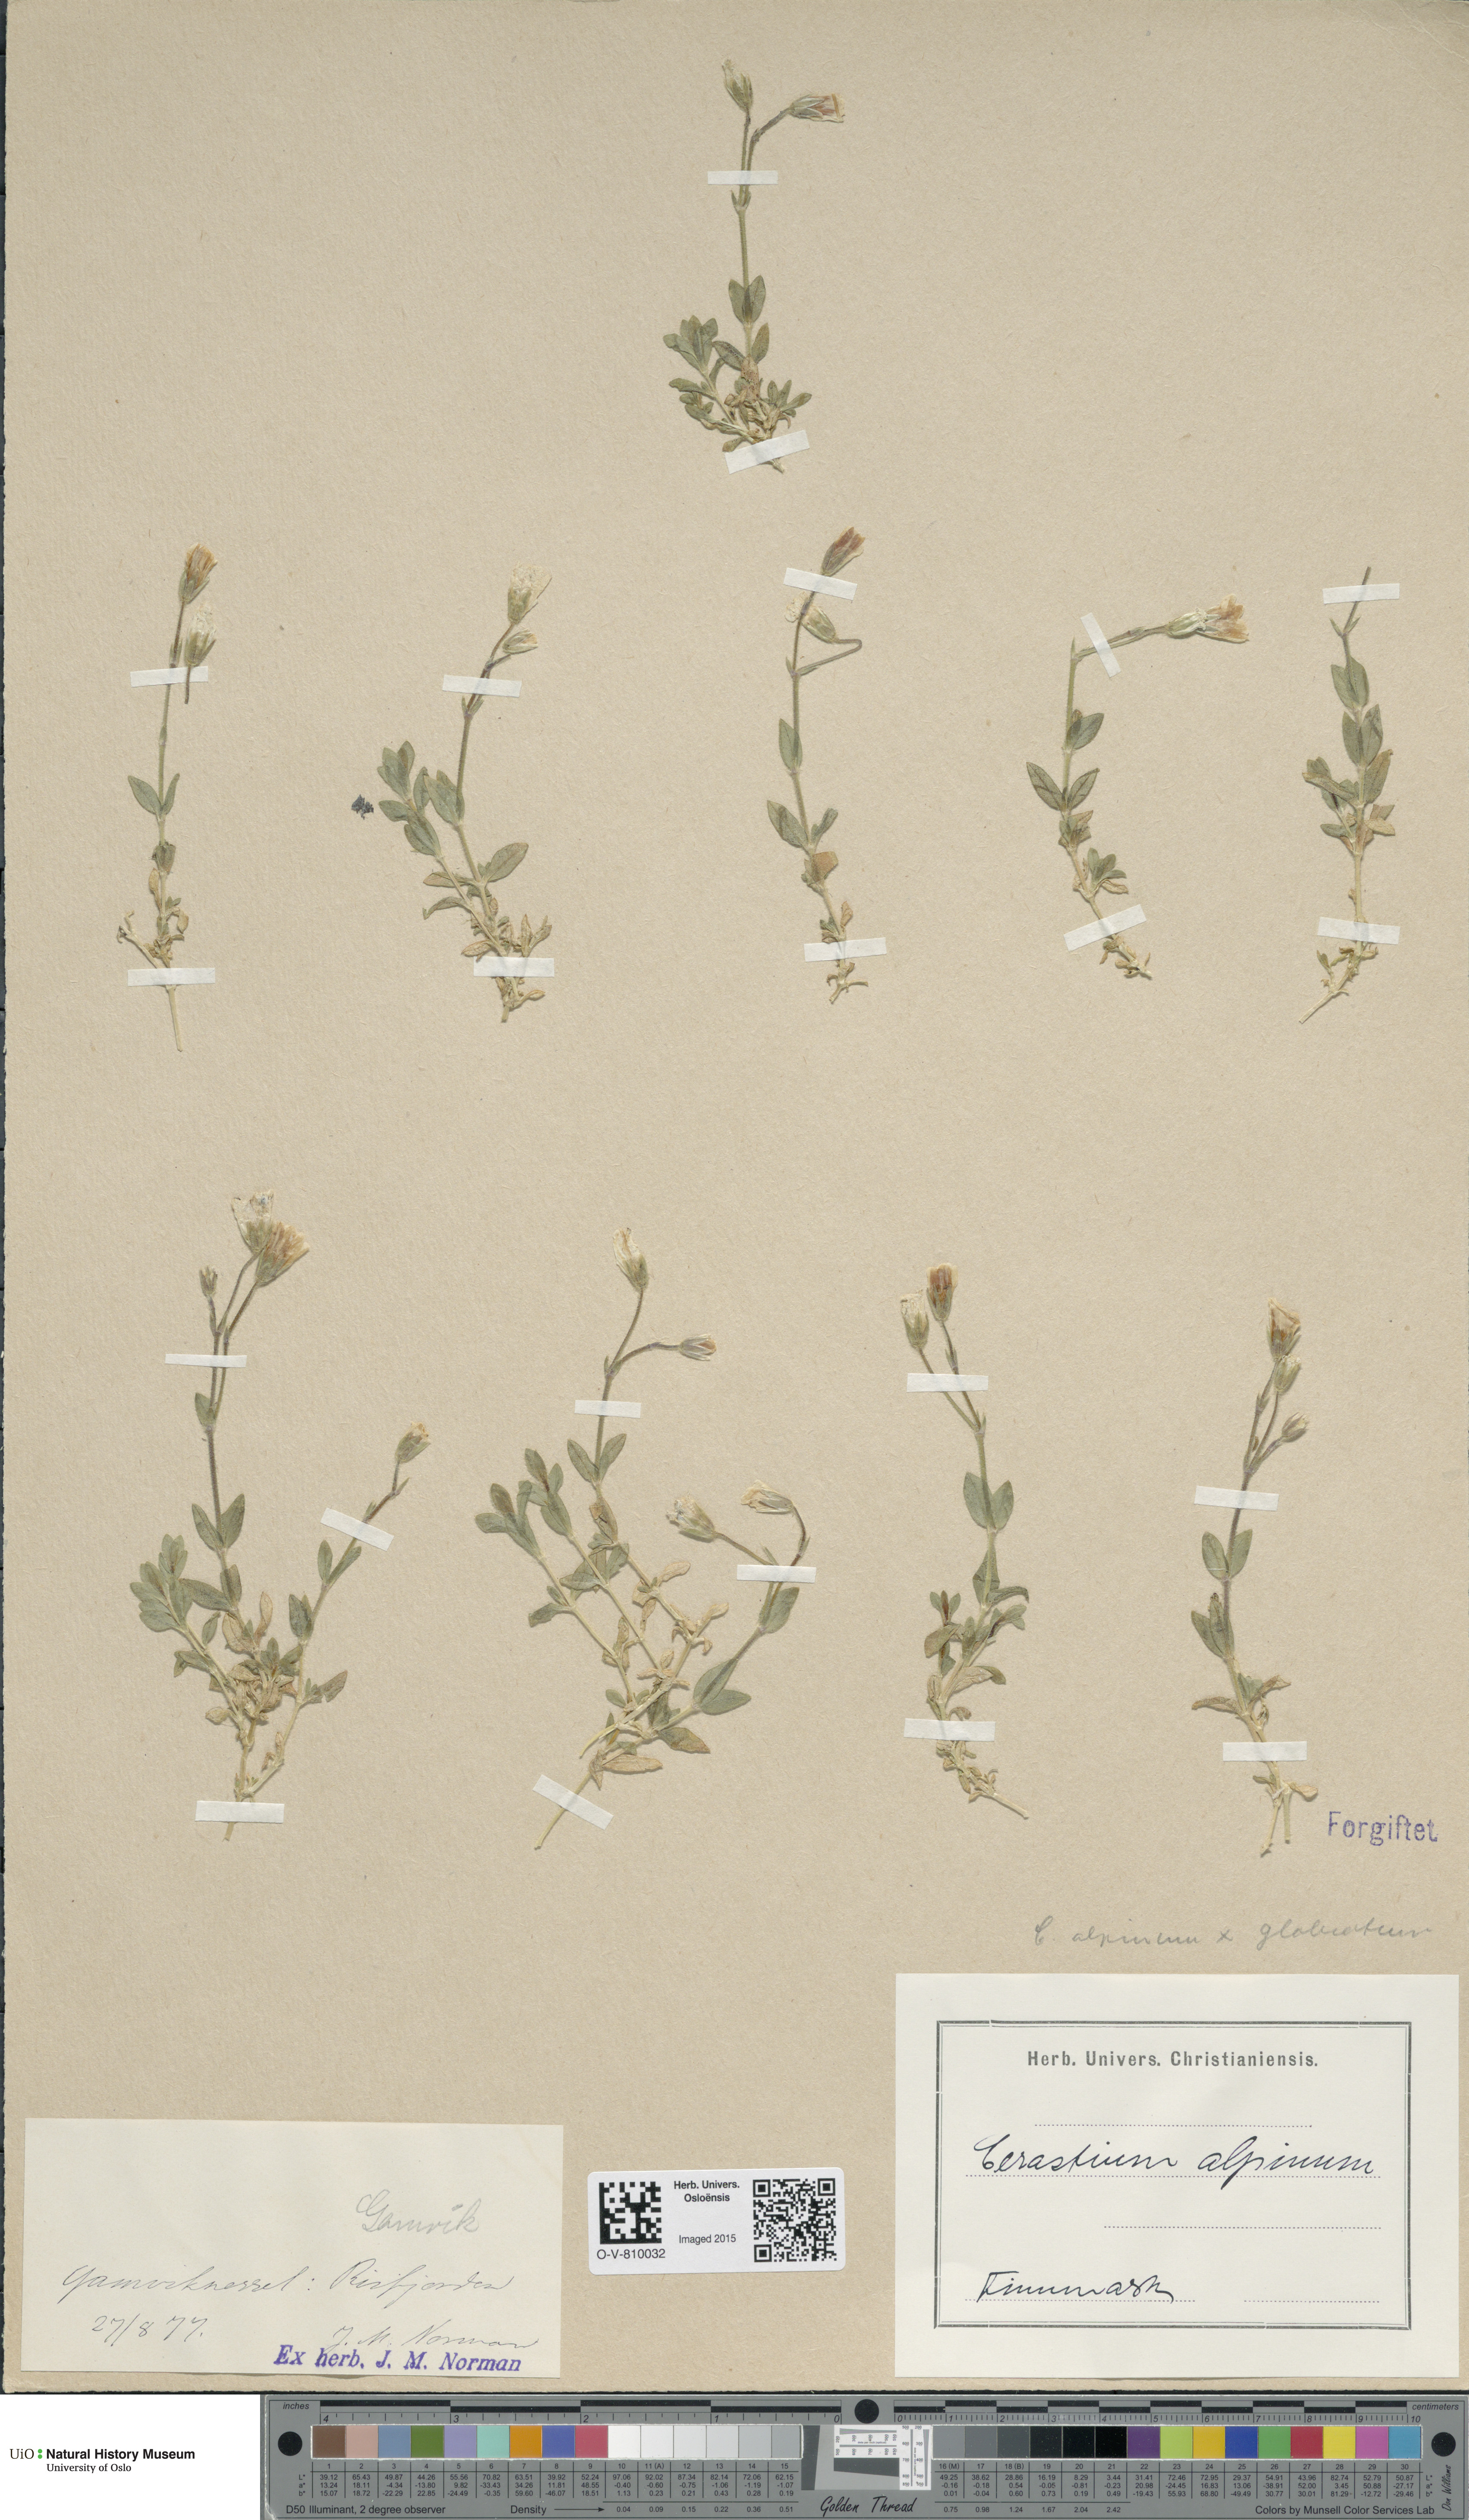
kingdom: Plantae
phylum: Tracheophyta
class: Magnoliopsida
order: Caryophyllales
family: Caryophyllaceae
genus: Cerastium
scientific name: Cerastium
